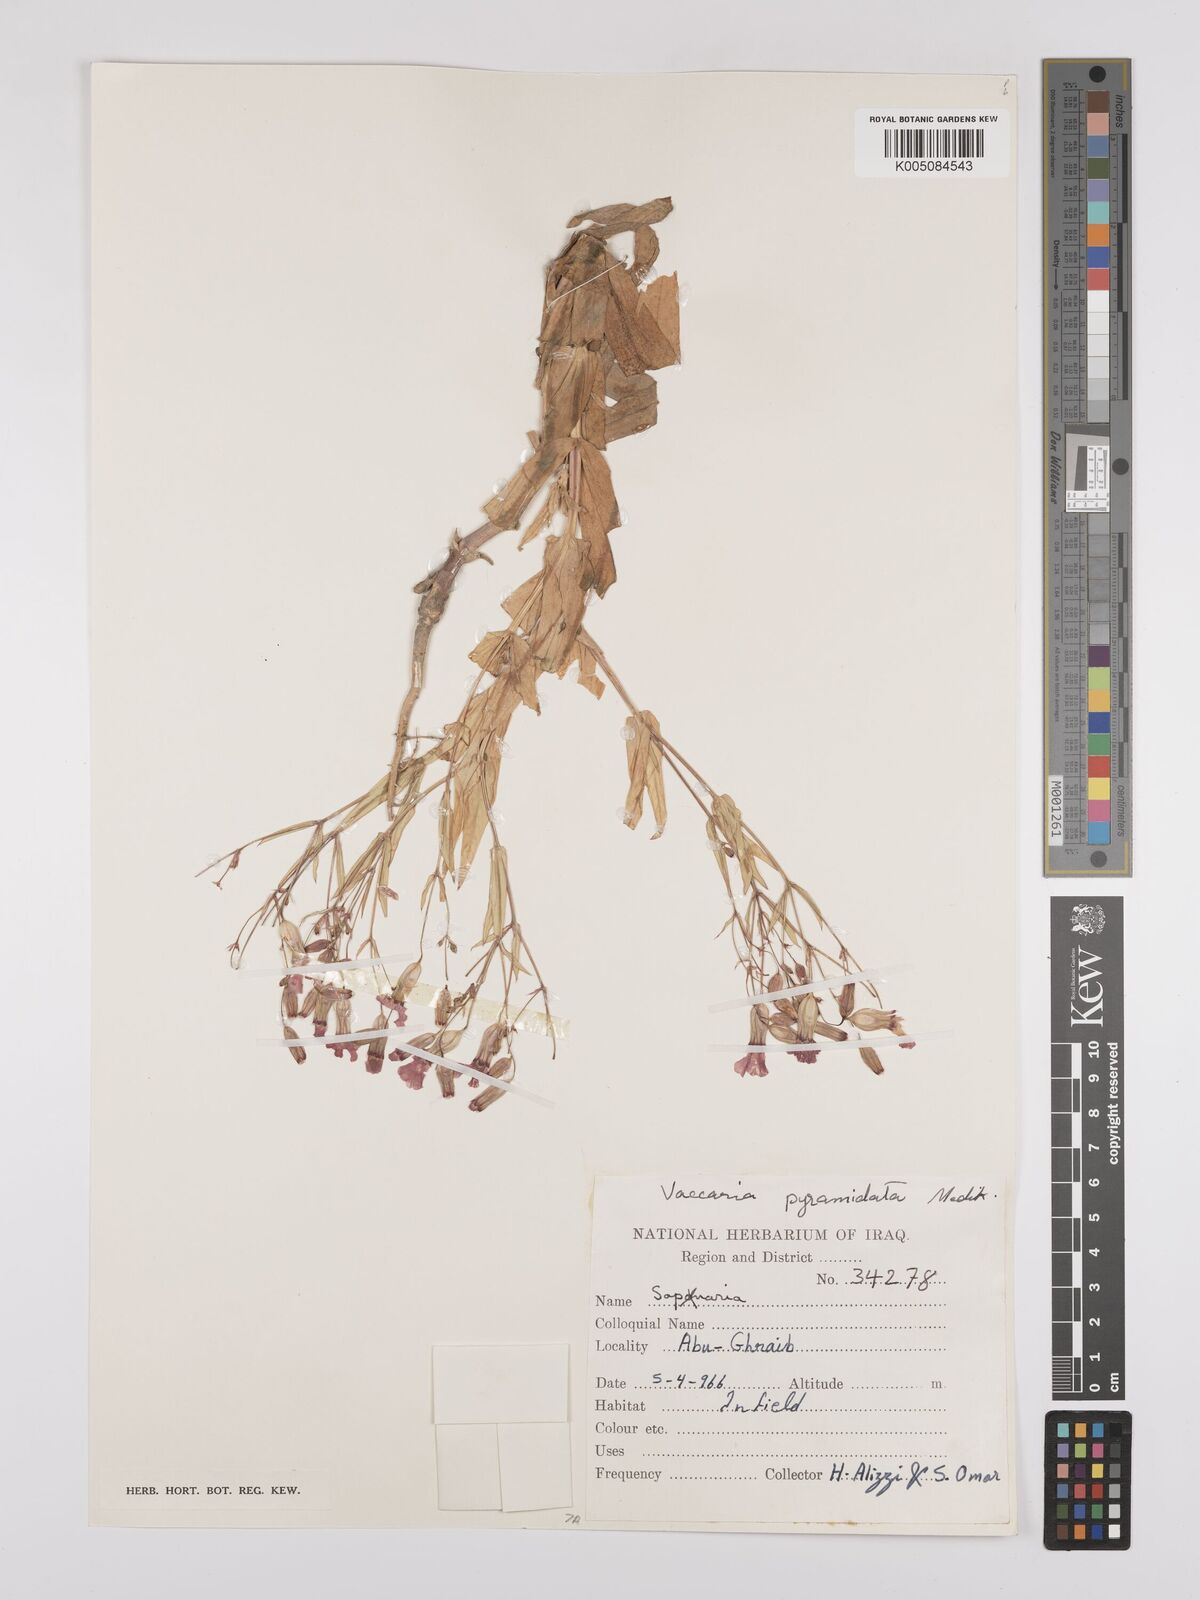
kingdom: Plantae
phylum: Tracheophyta
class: Magnoliopsida
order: Caryophyllales
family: Caryophyllaceae
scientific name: Caryophyllaceae
